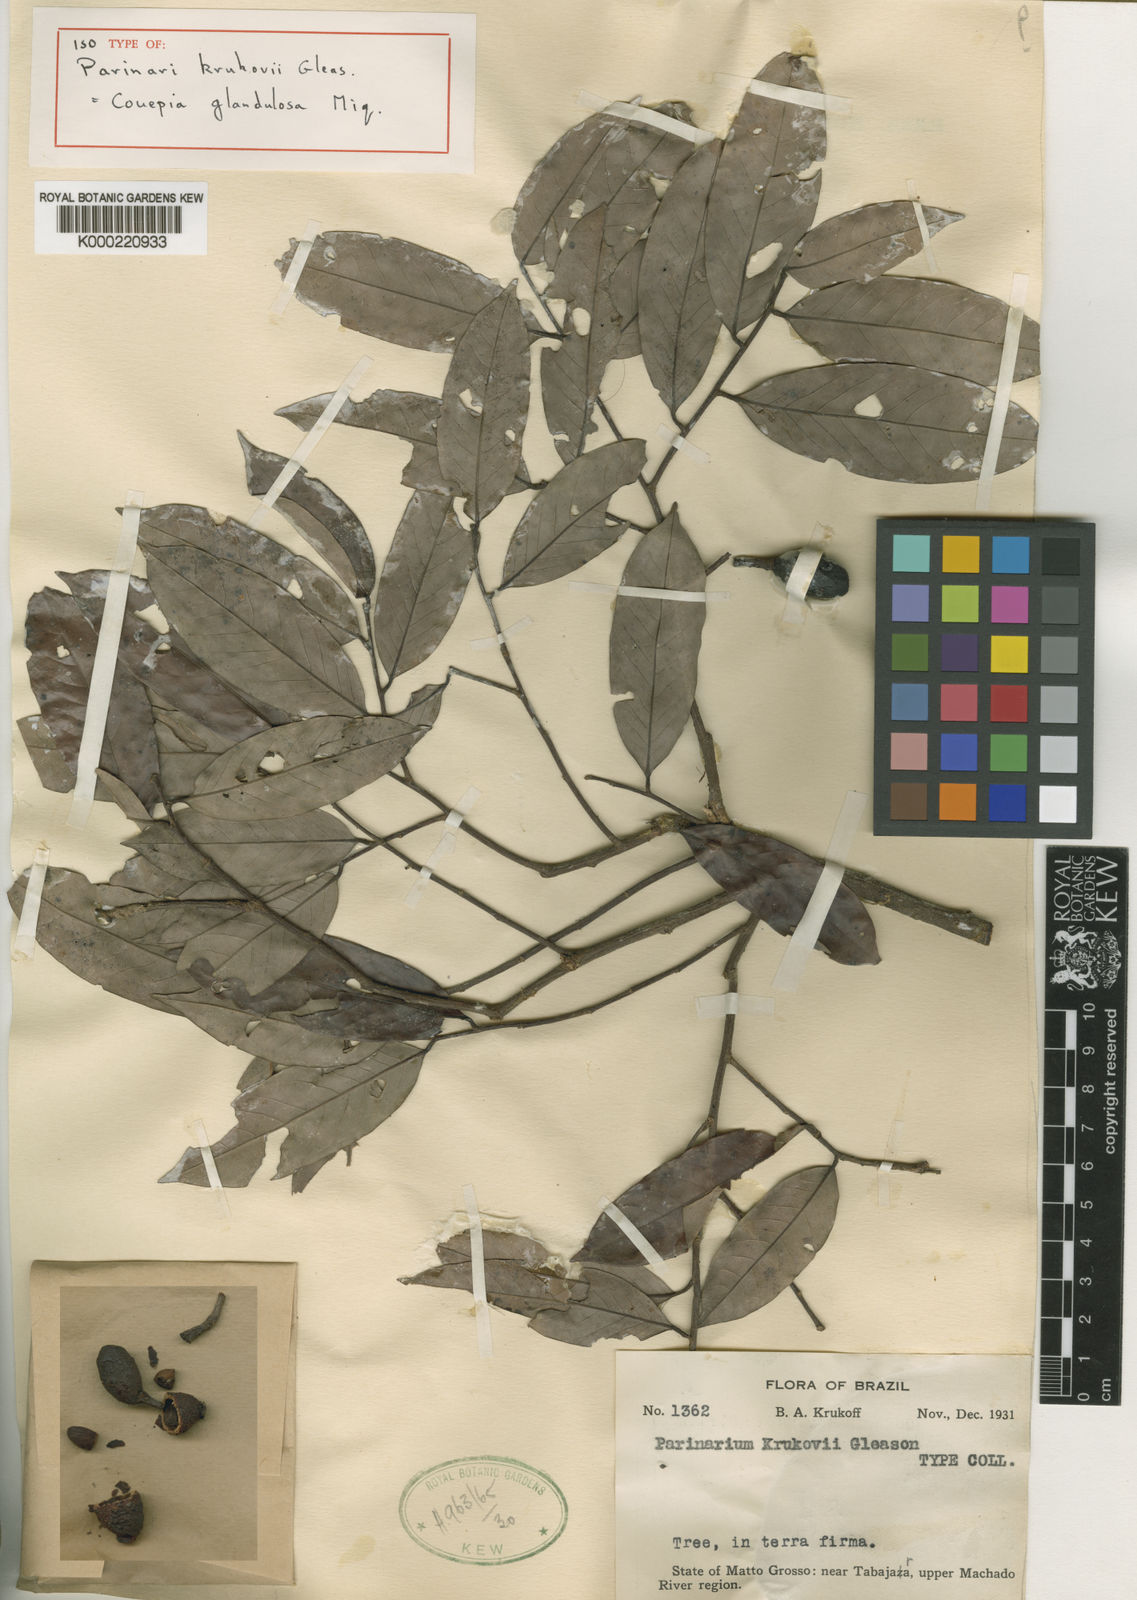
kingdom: Plantae
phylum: Tracheophyta
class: Magnoliopsida
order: Malpighiales
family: Chrysobalanaceae
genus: Couepia
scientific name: Couepia guianensis
